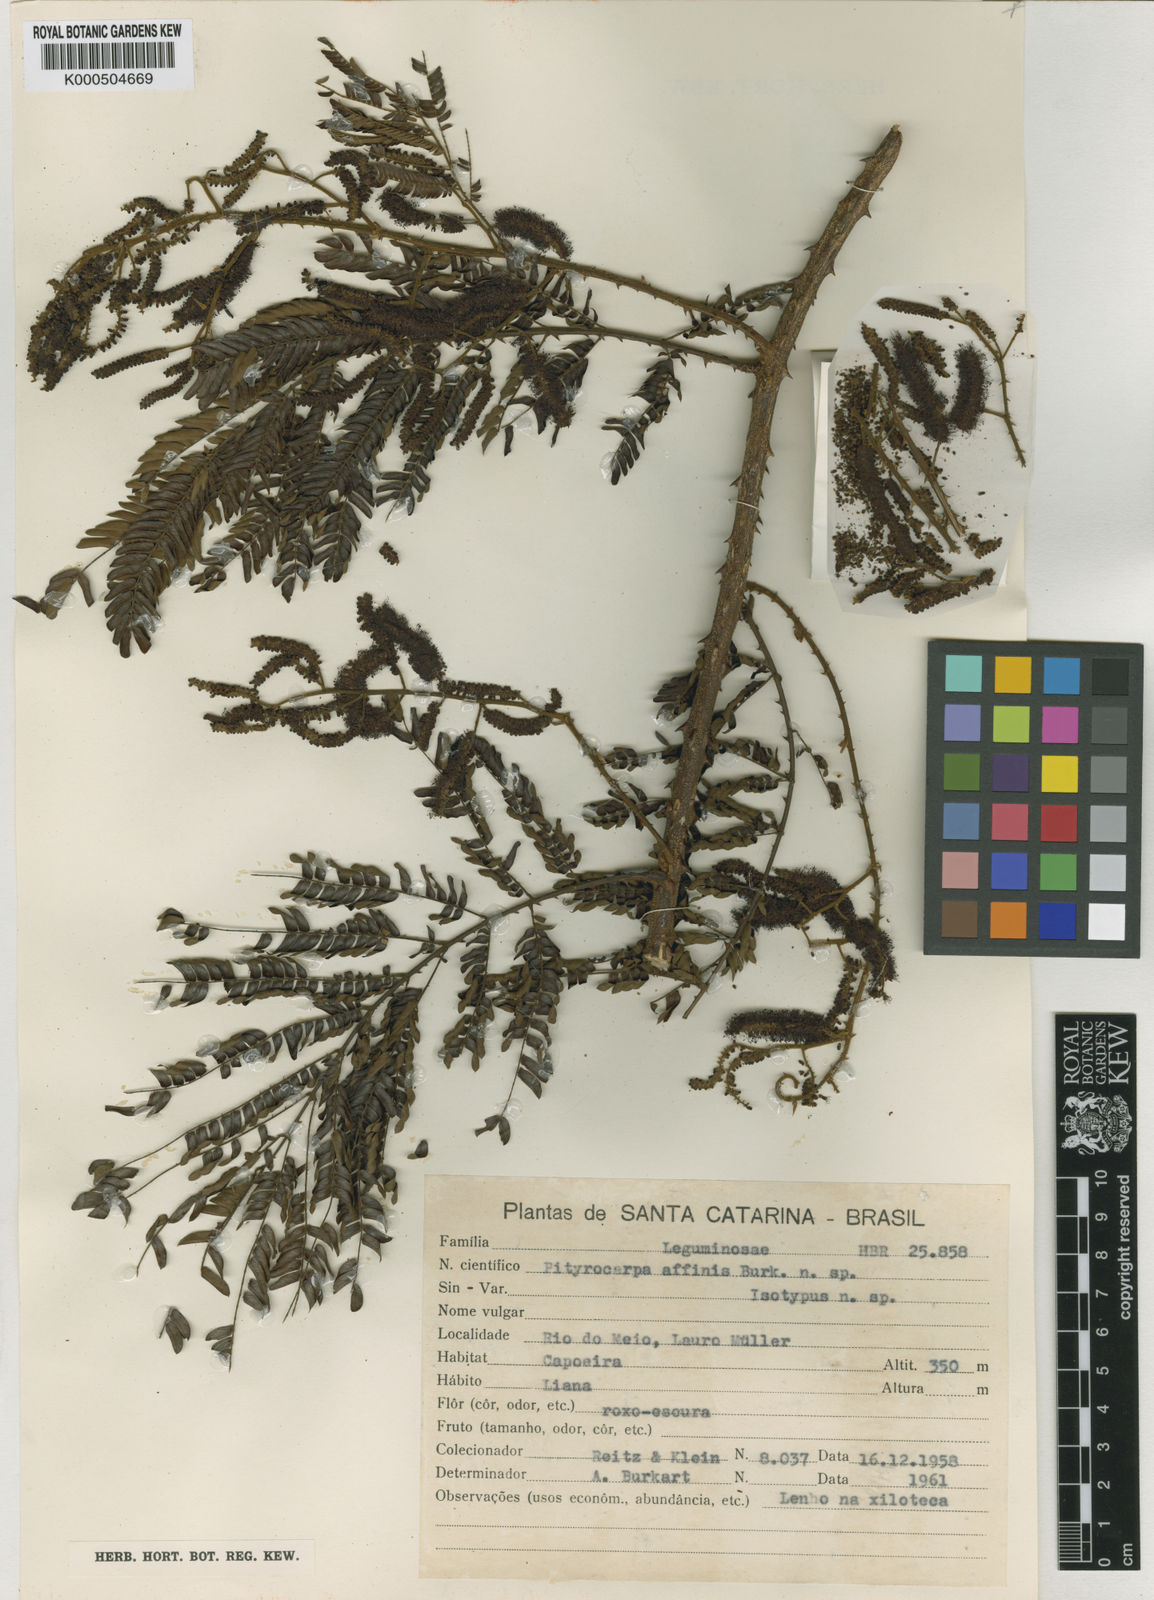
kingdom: Plantae
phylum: Tracheophyta
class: Magnoliopsida
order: Fabales
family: Fabaceae
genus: Piptadenia
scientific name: Piptadenia affinis
